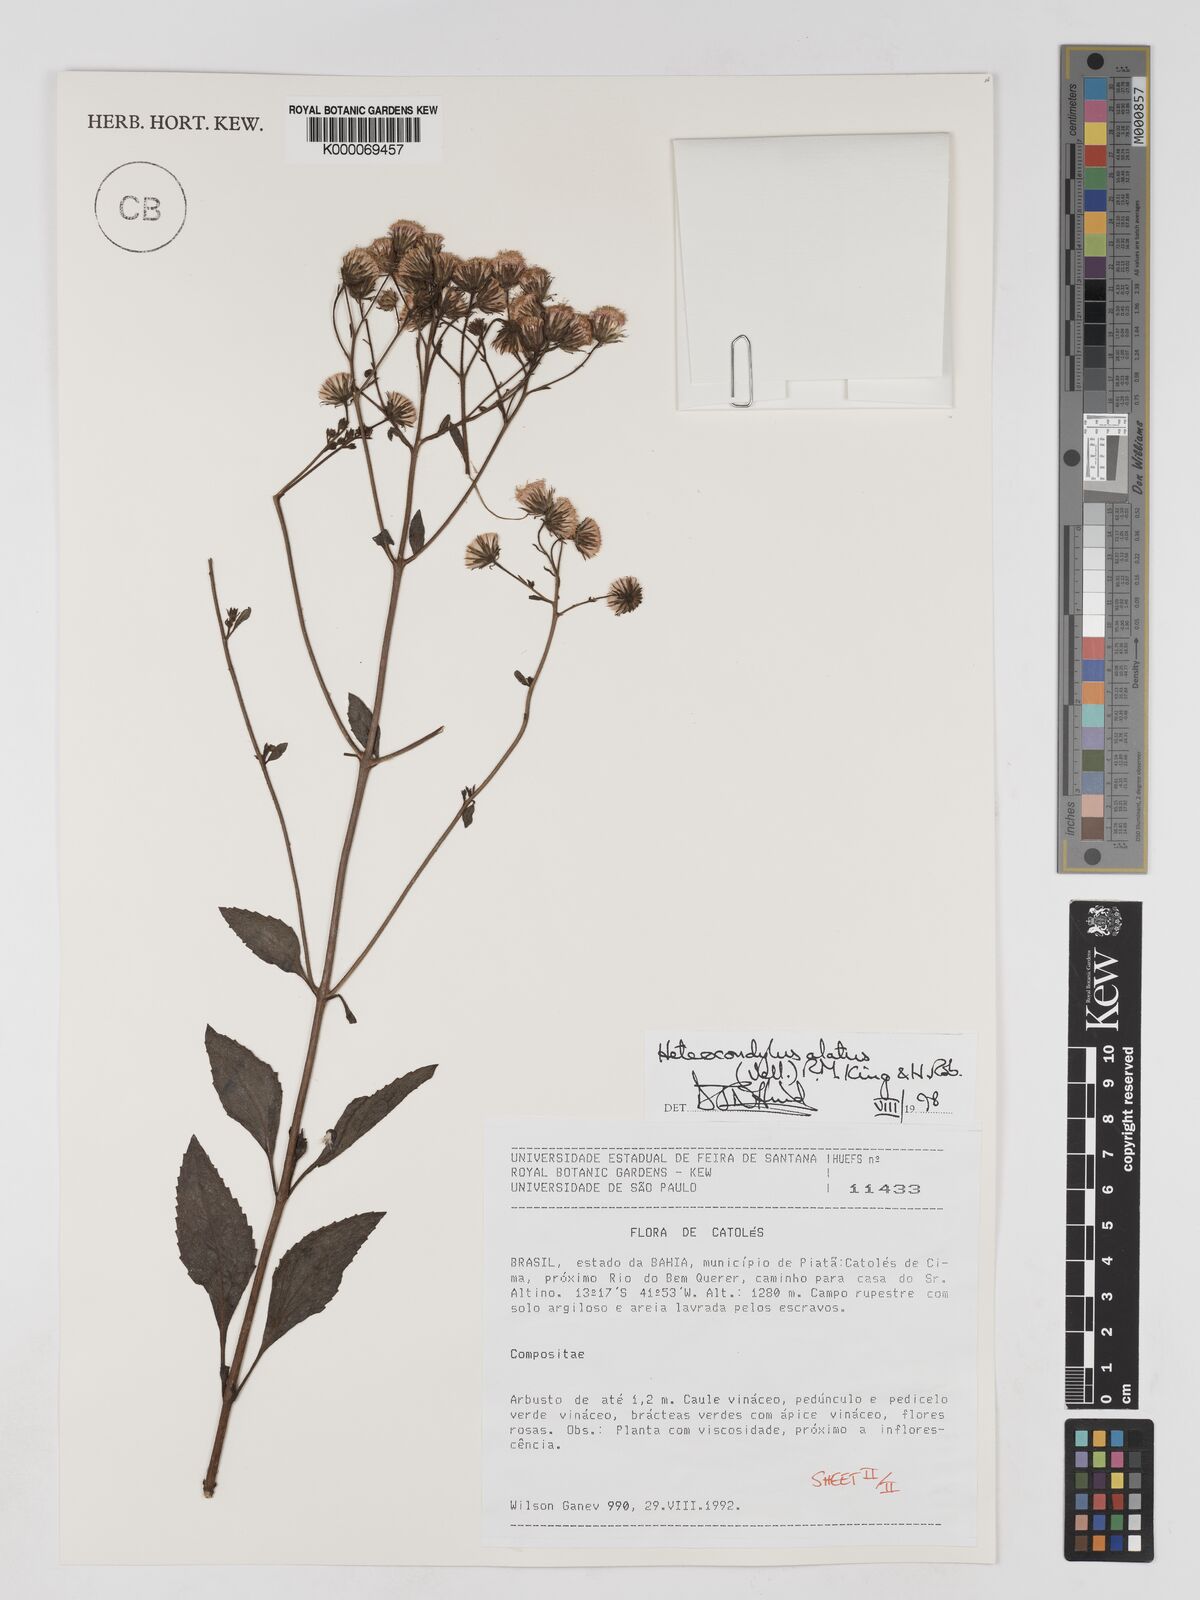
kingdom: Plantae
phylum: Tracheophyta
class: Magnoliopsida
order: Asterales
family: Asteraceae
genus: Heterocondylus
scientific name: Heterocondylus alatus
